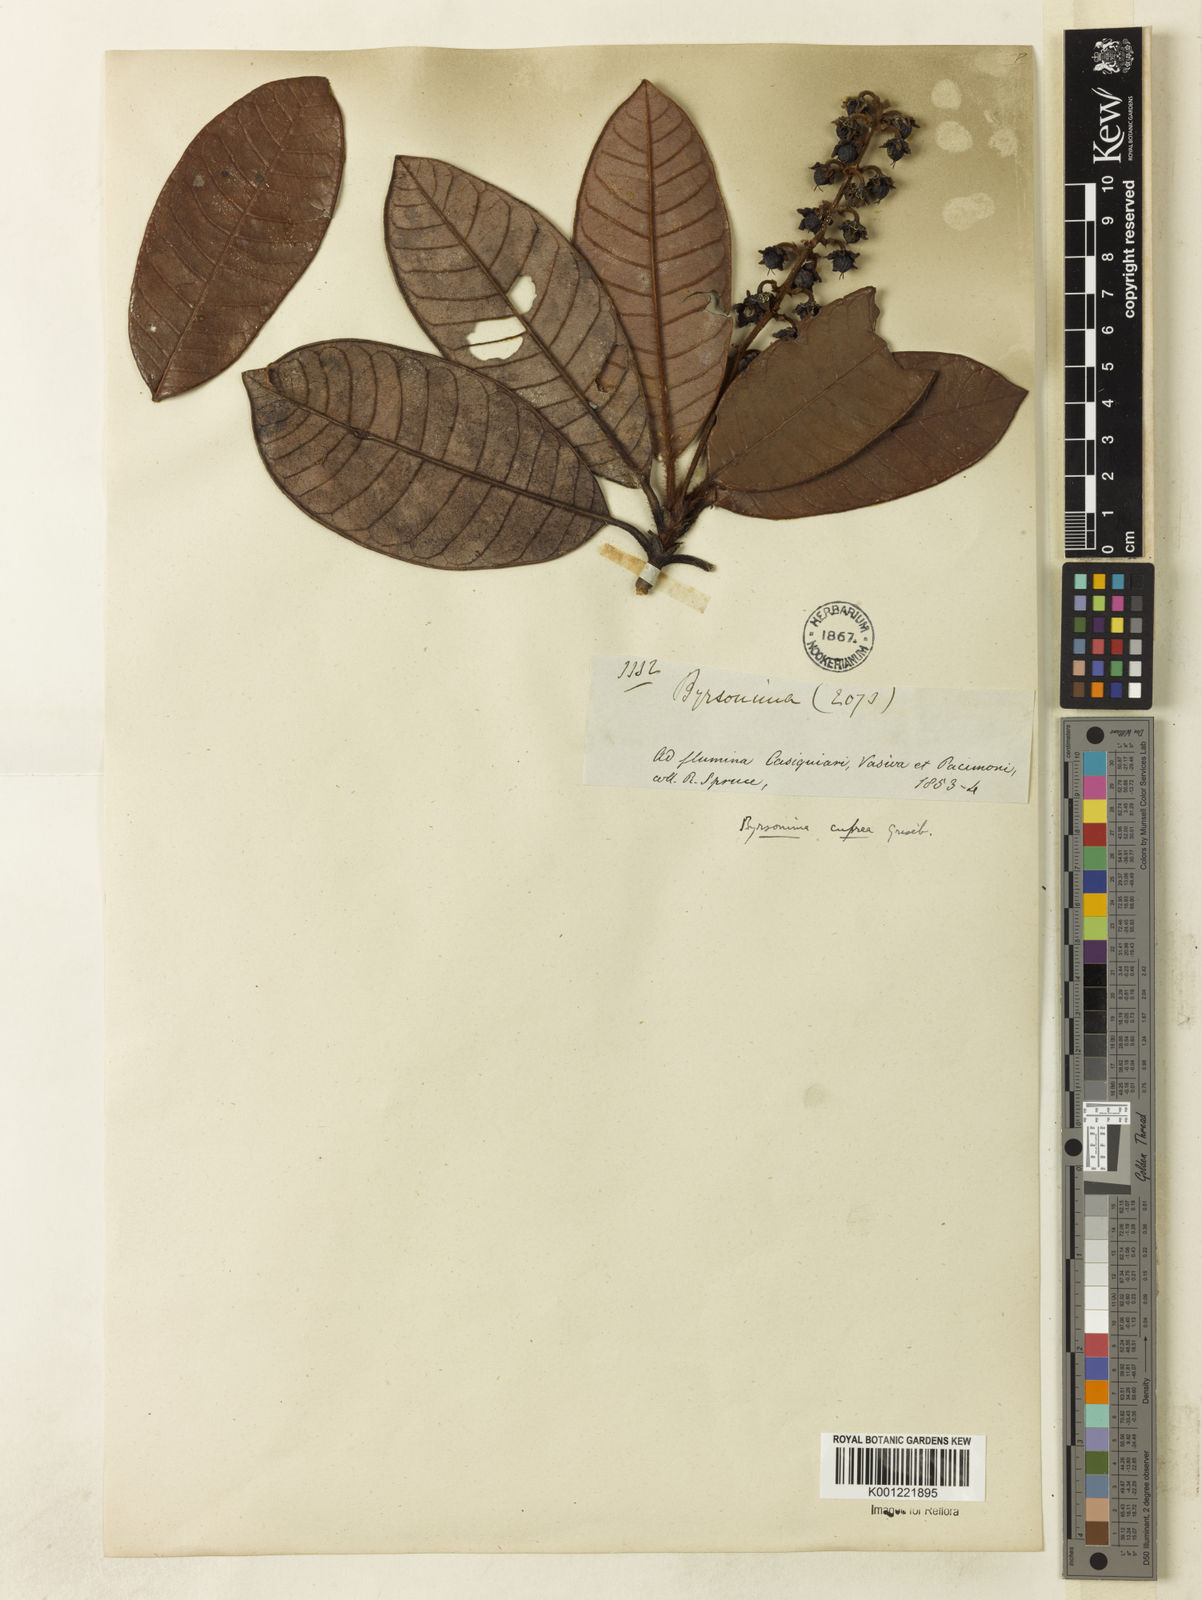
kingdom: Plantae
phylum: Tracheophyta
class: Magnoliopsida
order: Malpighiales
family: Malpighiaceae
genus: Byrsonima
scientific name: Byrsonima cuprea
